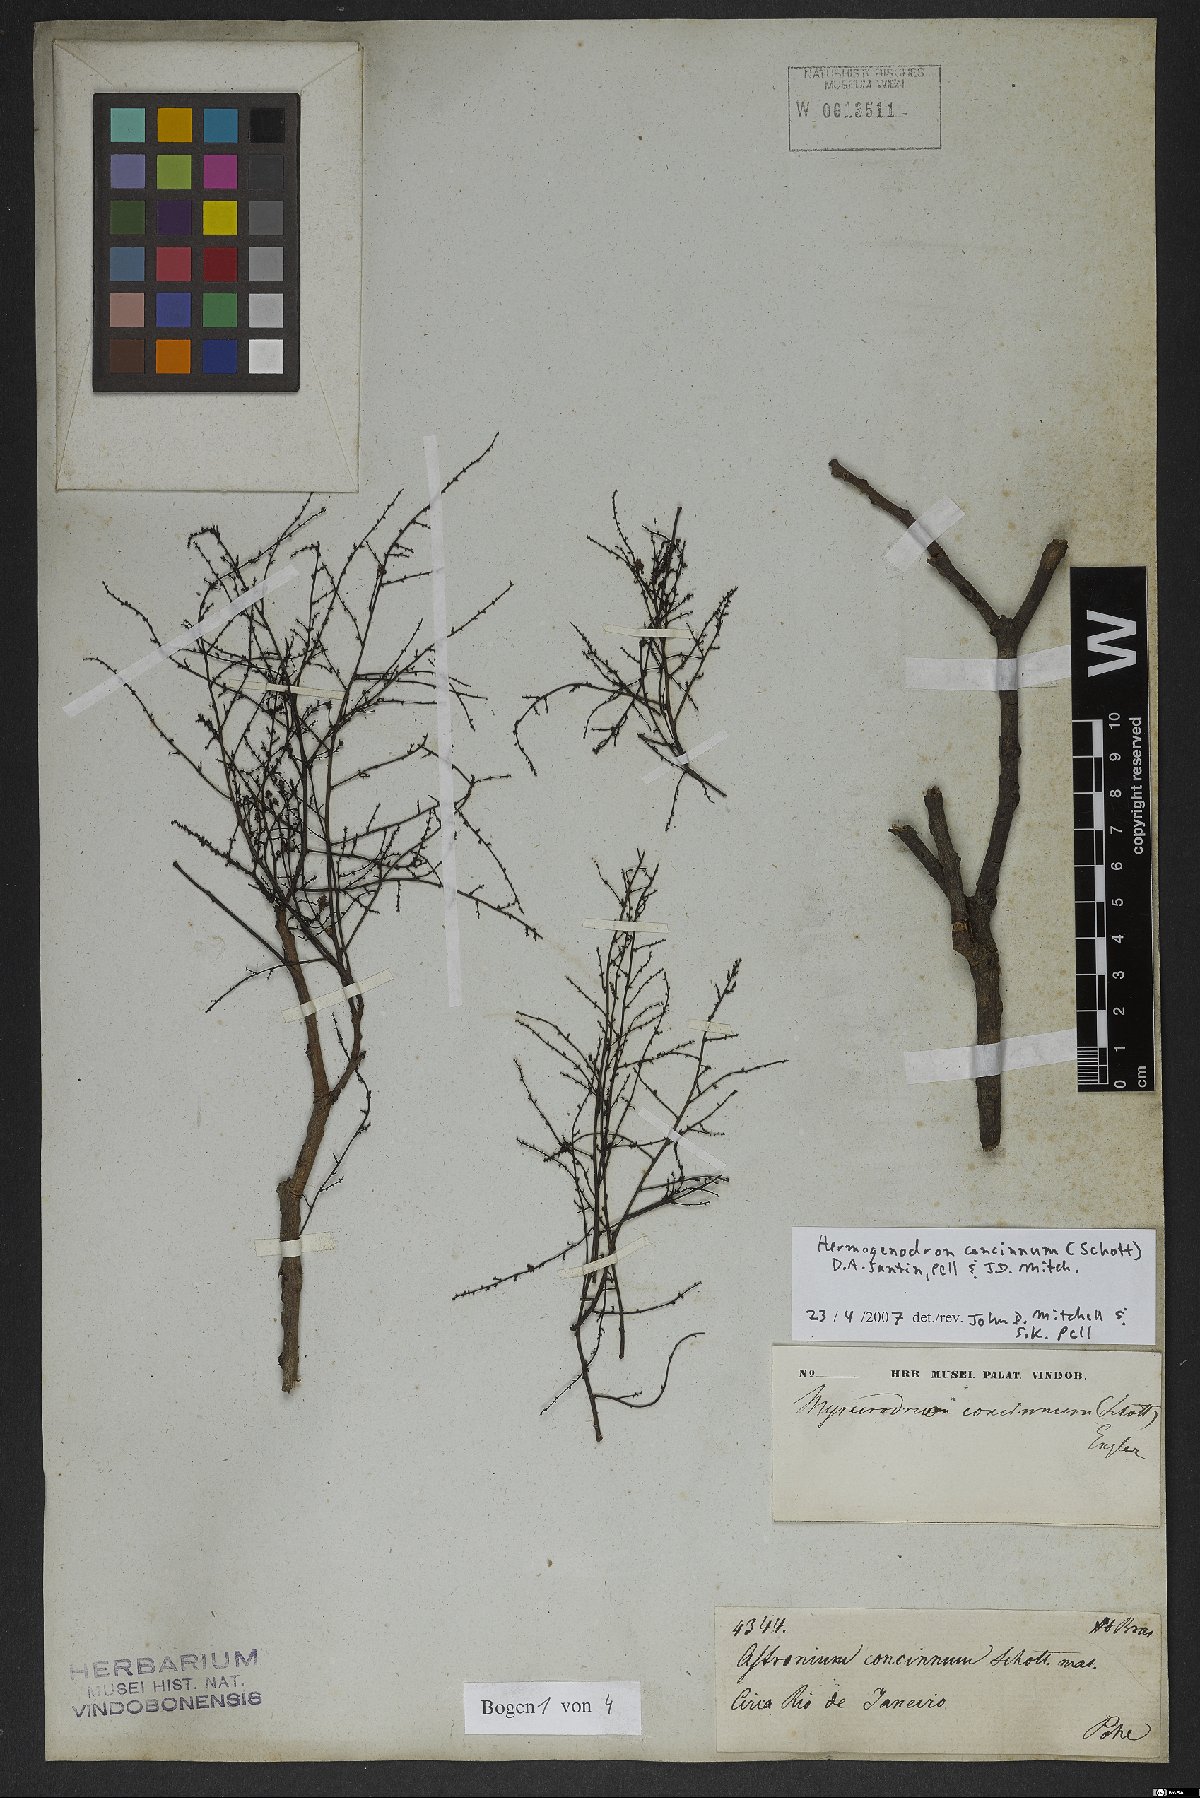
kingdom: Plantae
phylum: Tracheophyta
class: Magnoliopsida
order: Sapindales
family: Anacardiaceae
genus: Myracrodruon
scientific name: Myracrodruon urundeuva
